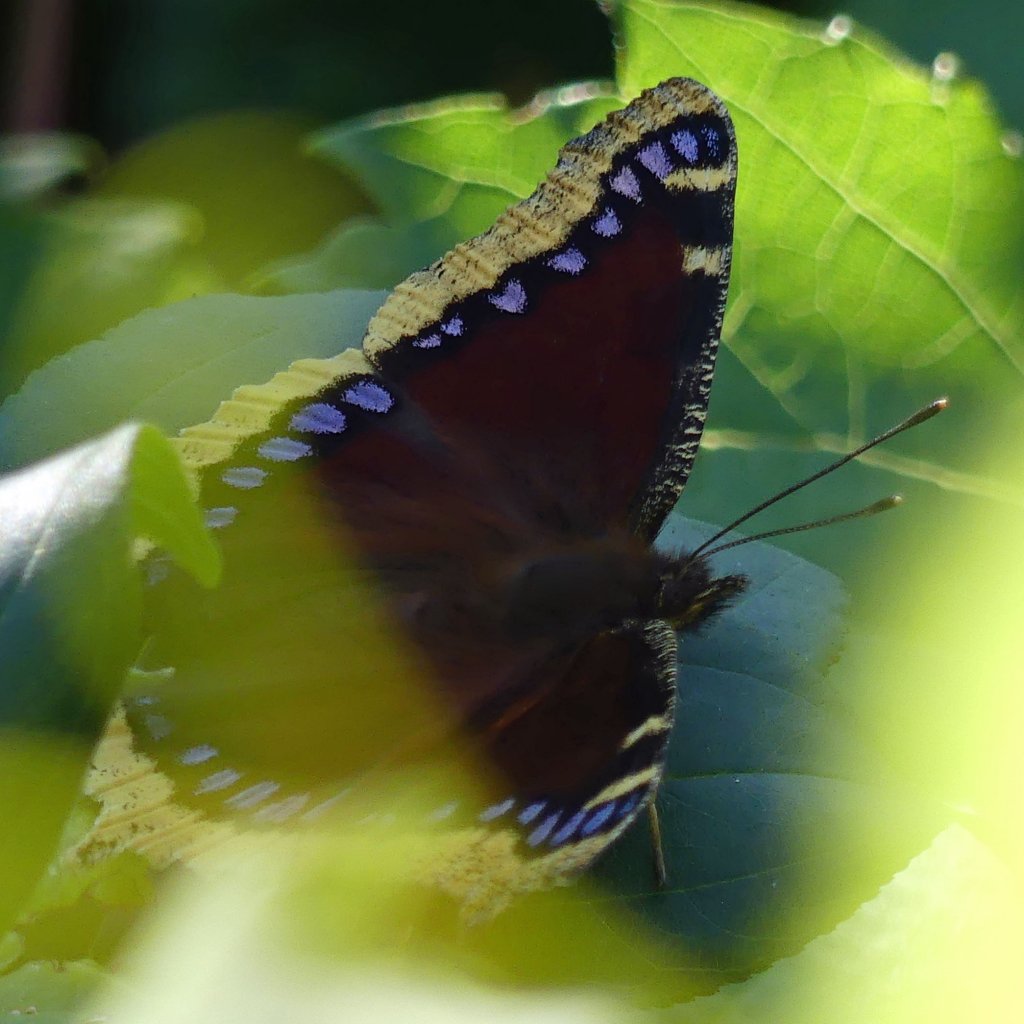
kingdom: Animalia
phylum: Arthropoda
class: Insecta
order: Lepidoptera
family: Nymphalidae
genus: Nymphalis
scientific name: Nymphalis antiopa
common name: Mourning Cloak
